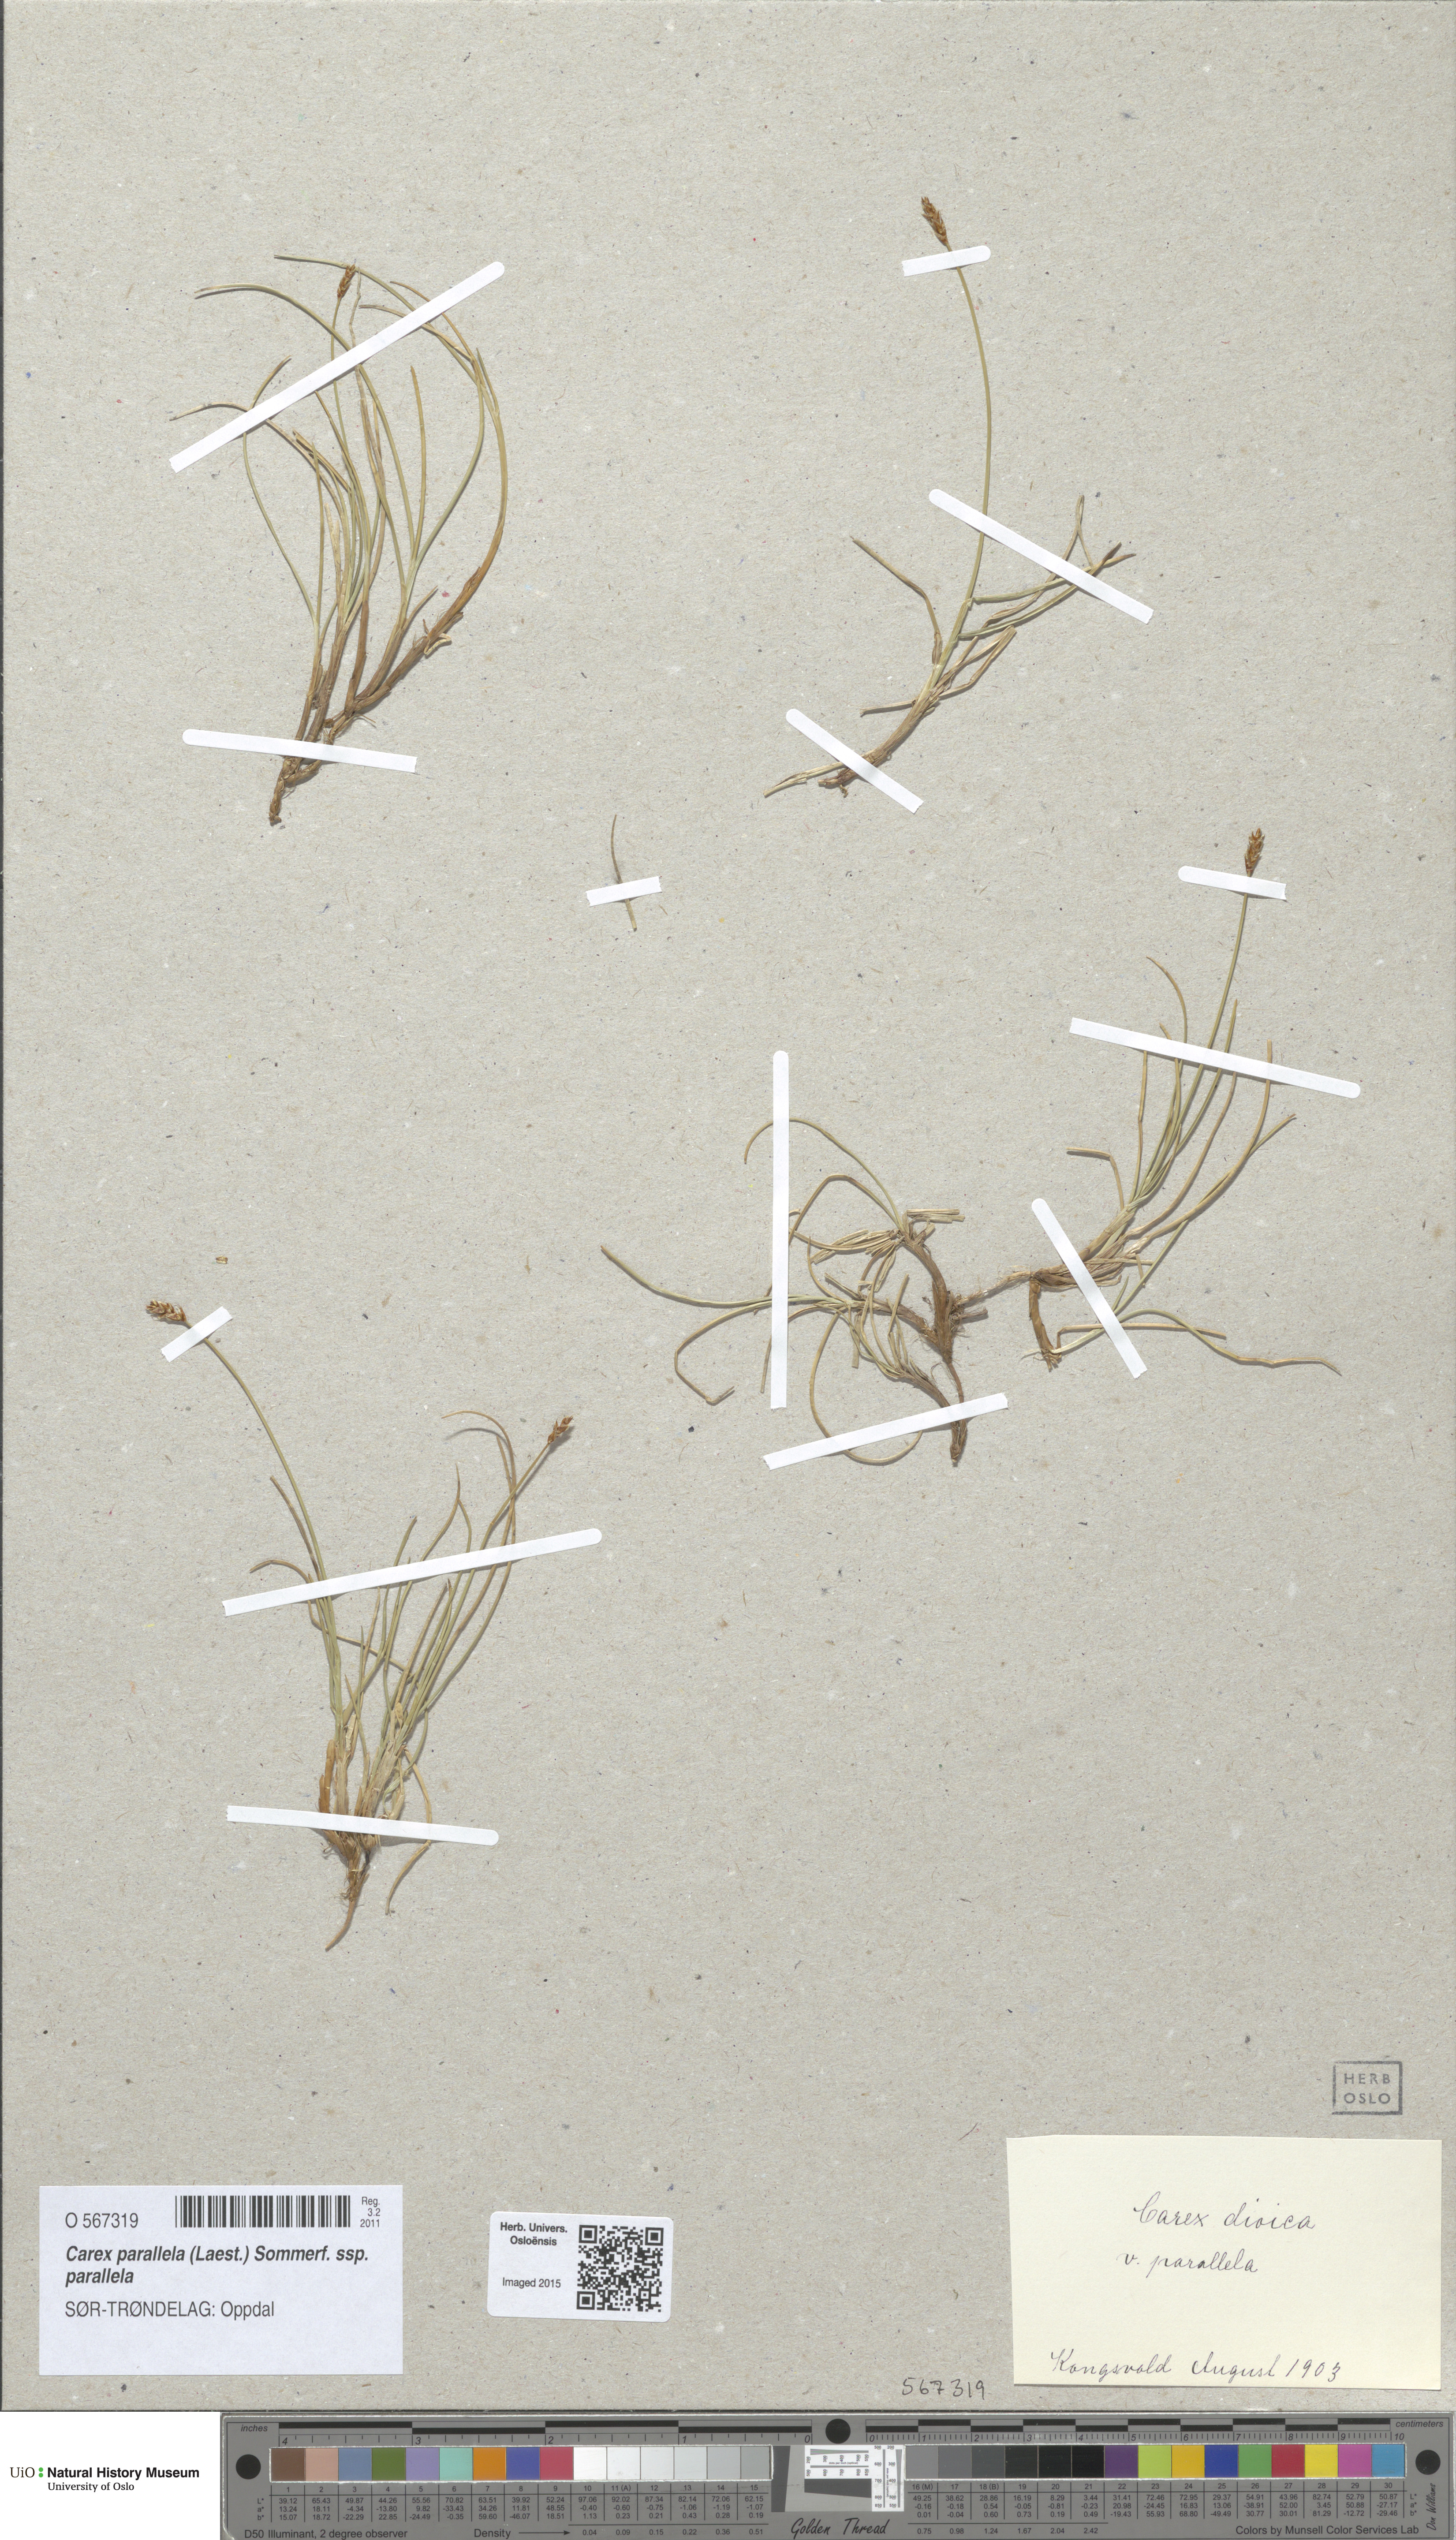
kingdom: Plantae
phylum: Tracheophyta
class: Liliopsida
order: Poales
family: Cyperaceae
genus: Carex
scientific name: Carex parallela
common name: Parallel sedge
